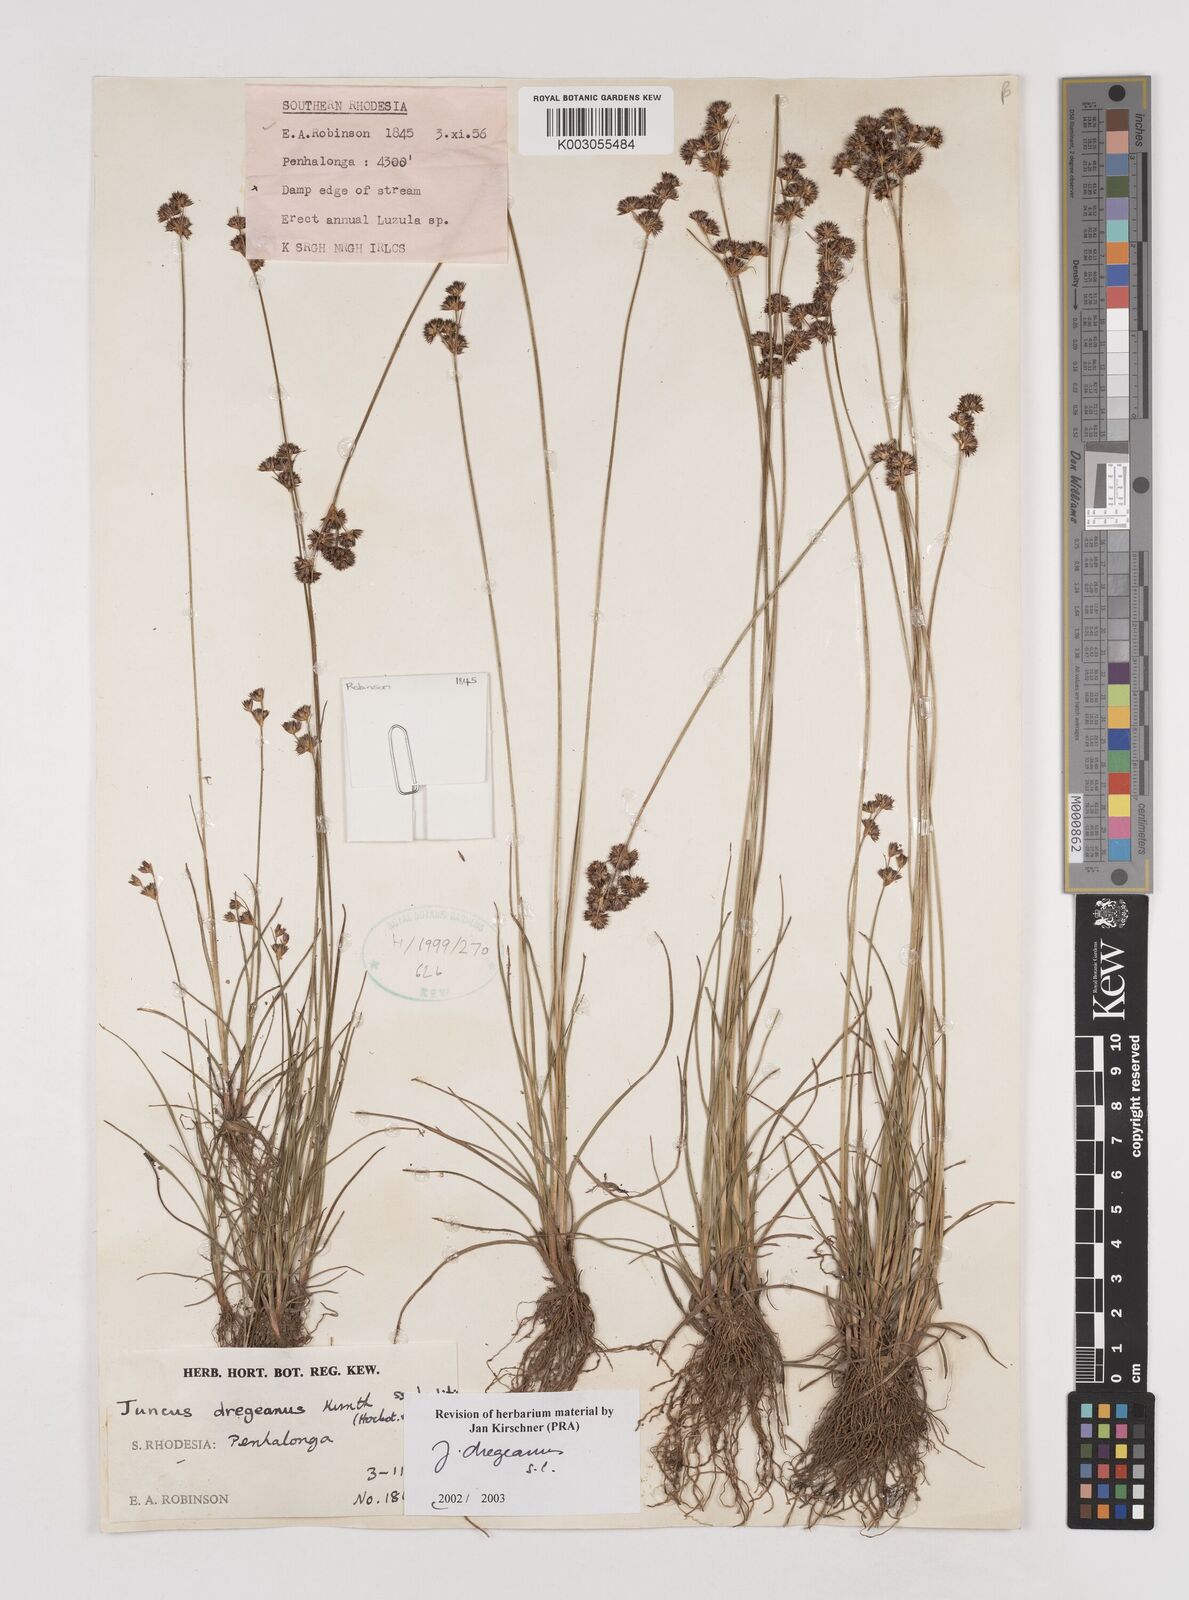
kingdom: Plantae
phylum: Tracheophyta
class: Liliopsida
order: Poales
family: Juncaceae
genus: Juncus
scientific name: Juncus dregeanus
